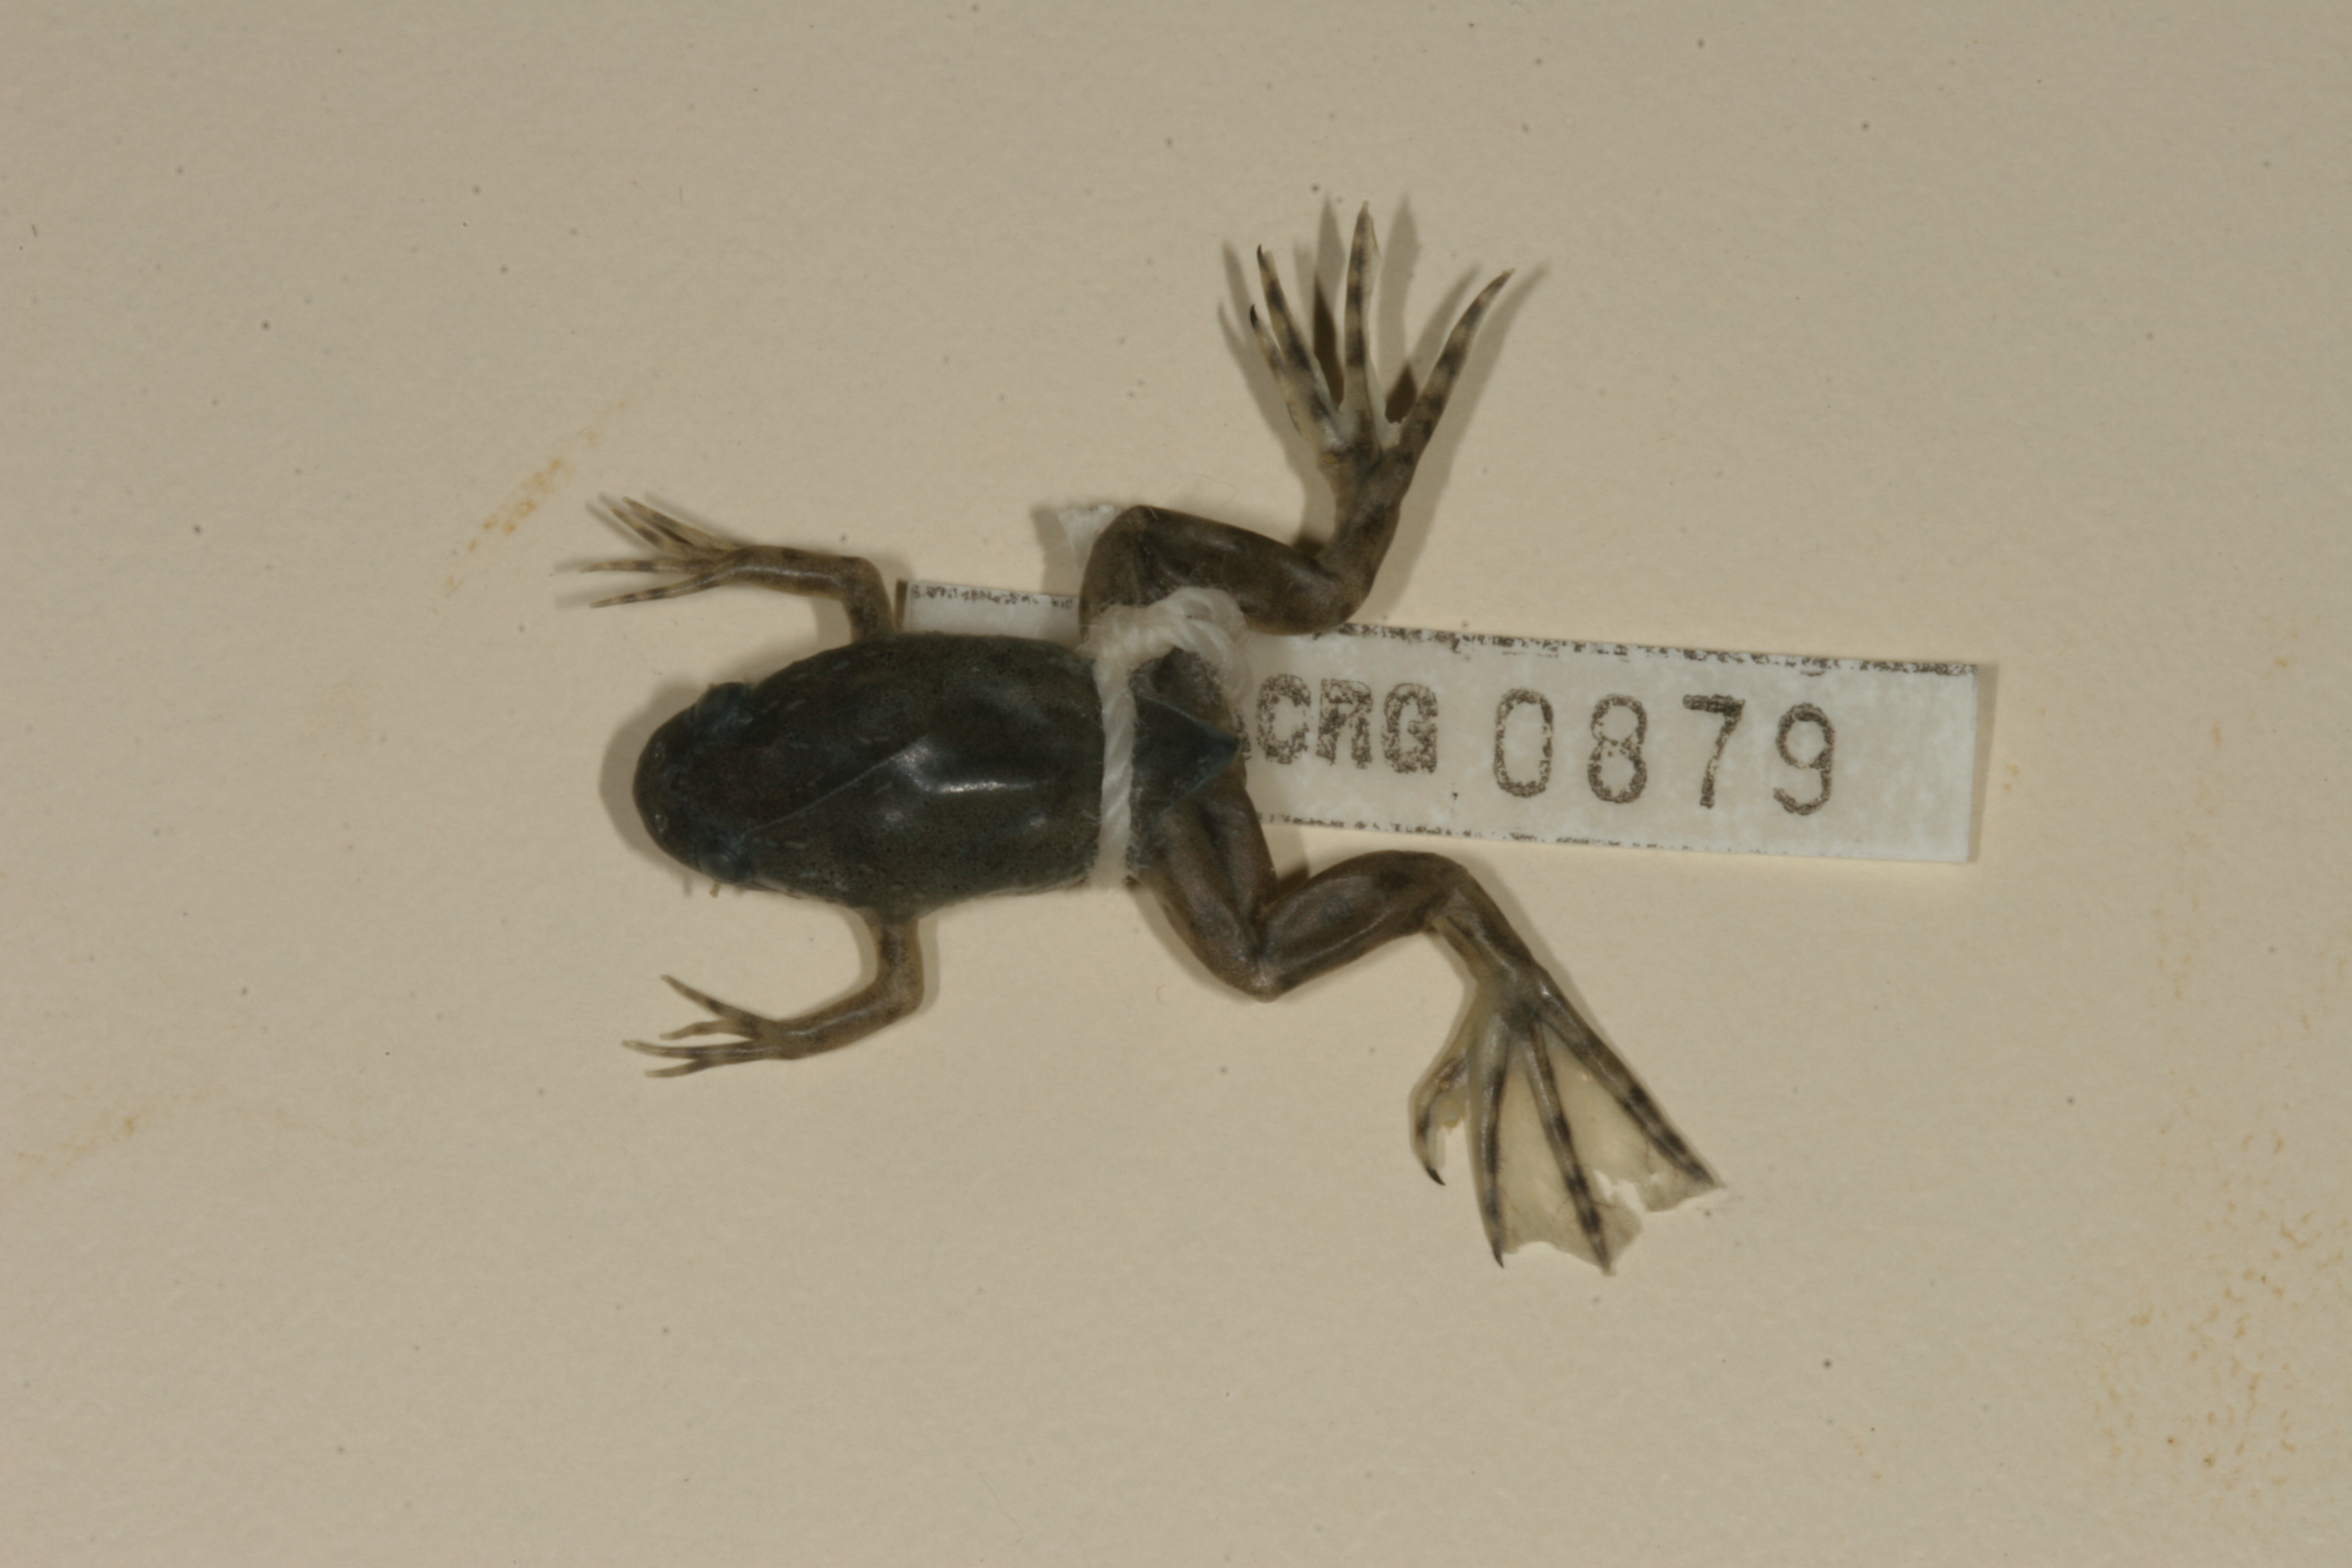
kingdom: Animalia
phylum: Chordata
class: Amphibia
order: Anura
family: Pipidae
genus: Xenopus
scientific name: Xenopus laevis
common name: African clawed frog
